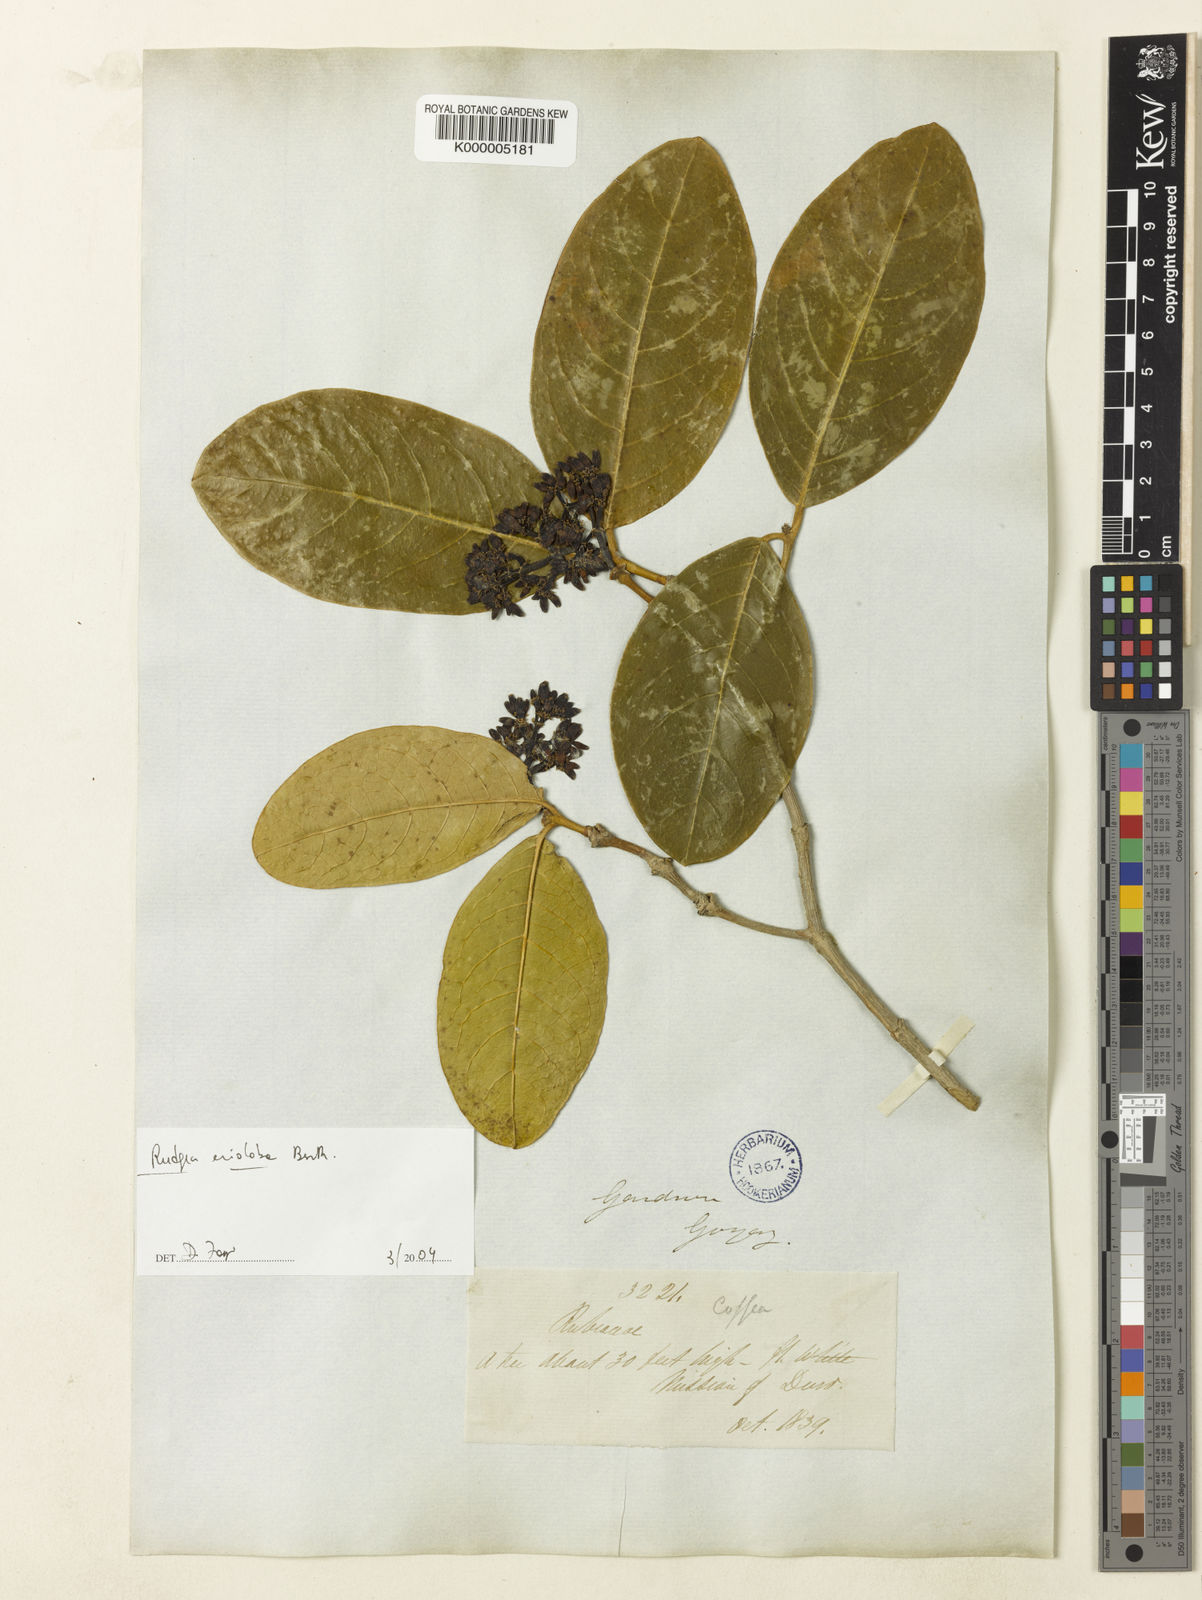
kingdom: Plantae
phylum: Tracheophyta
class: Magnoliopsida
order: Gentianales
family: Rubiaceae
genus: Rudgea
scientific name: Rudgea erioloba
